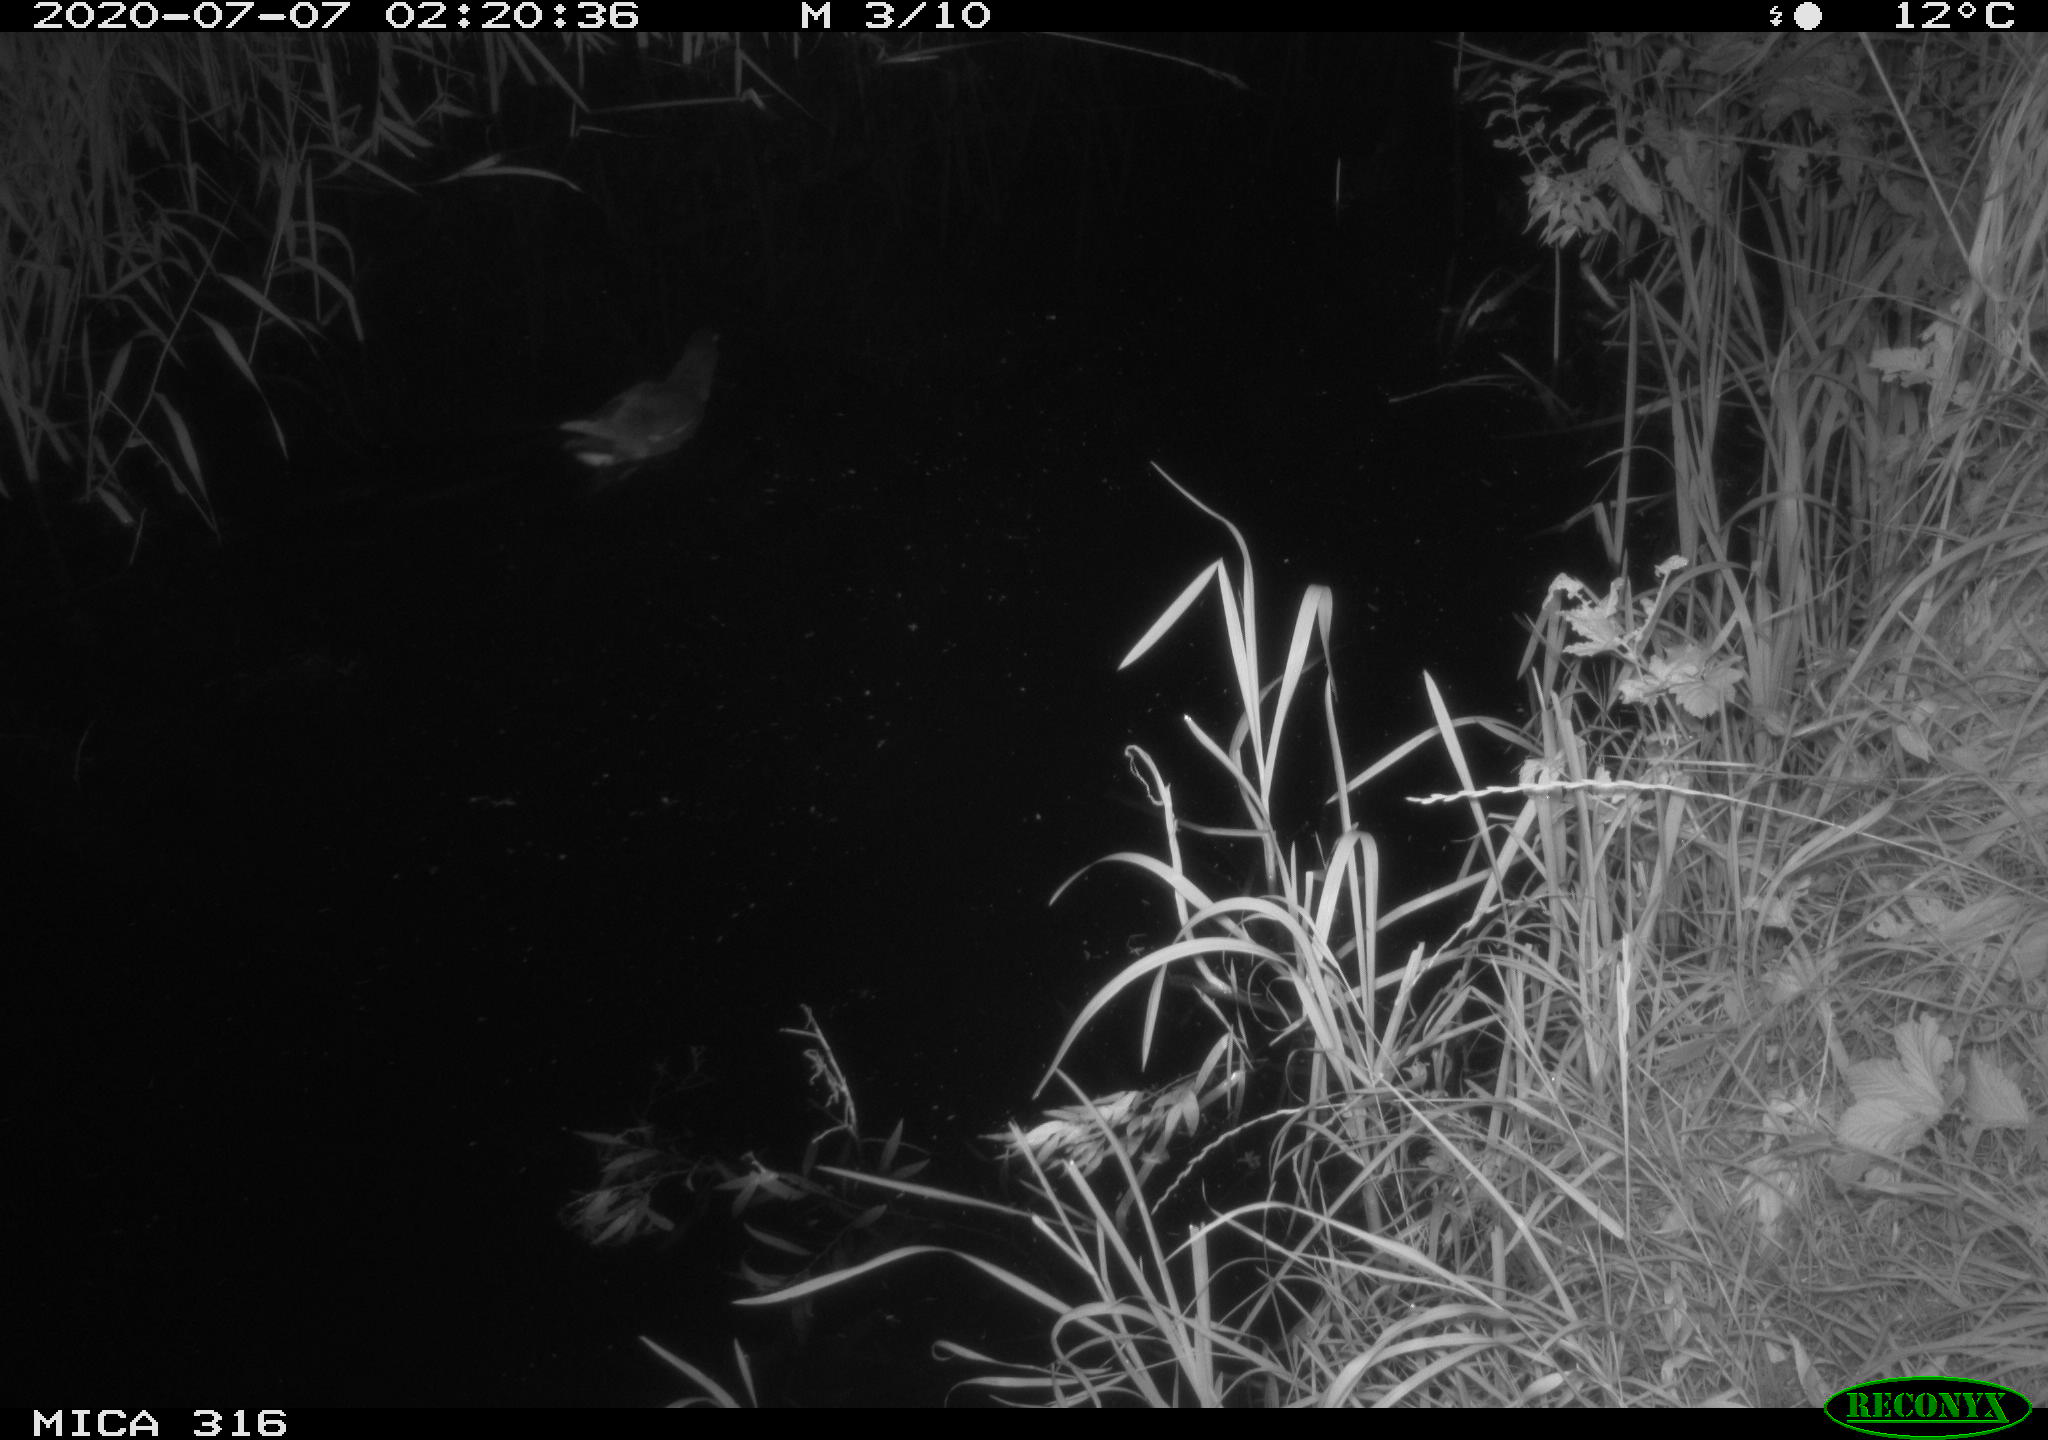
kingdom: Animalia
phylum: Chordata
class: Aves
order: Anseriformes
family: Anatidae
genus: Anas
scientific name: Anas platyrhynchos
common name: Mallard
